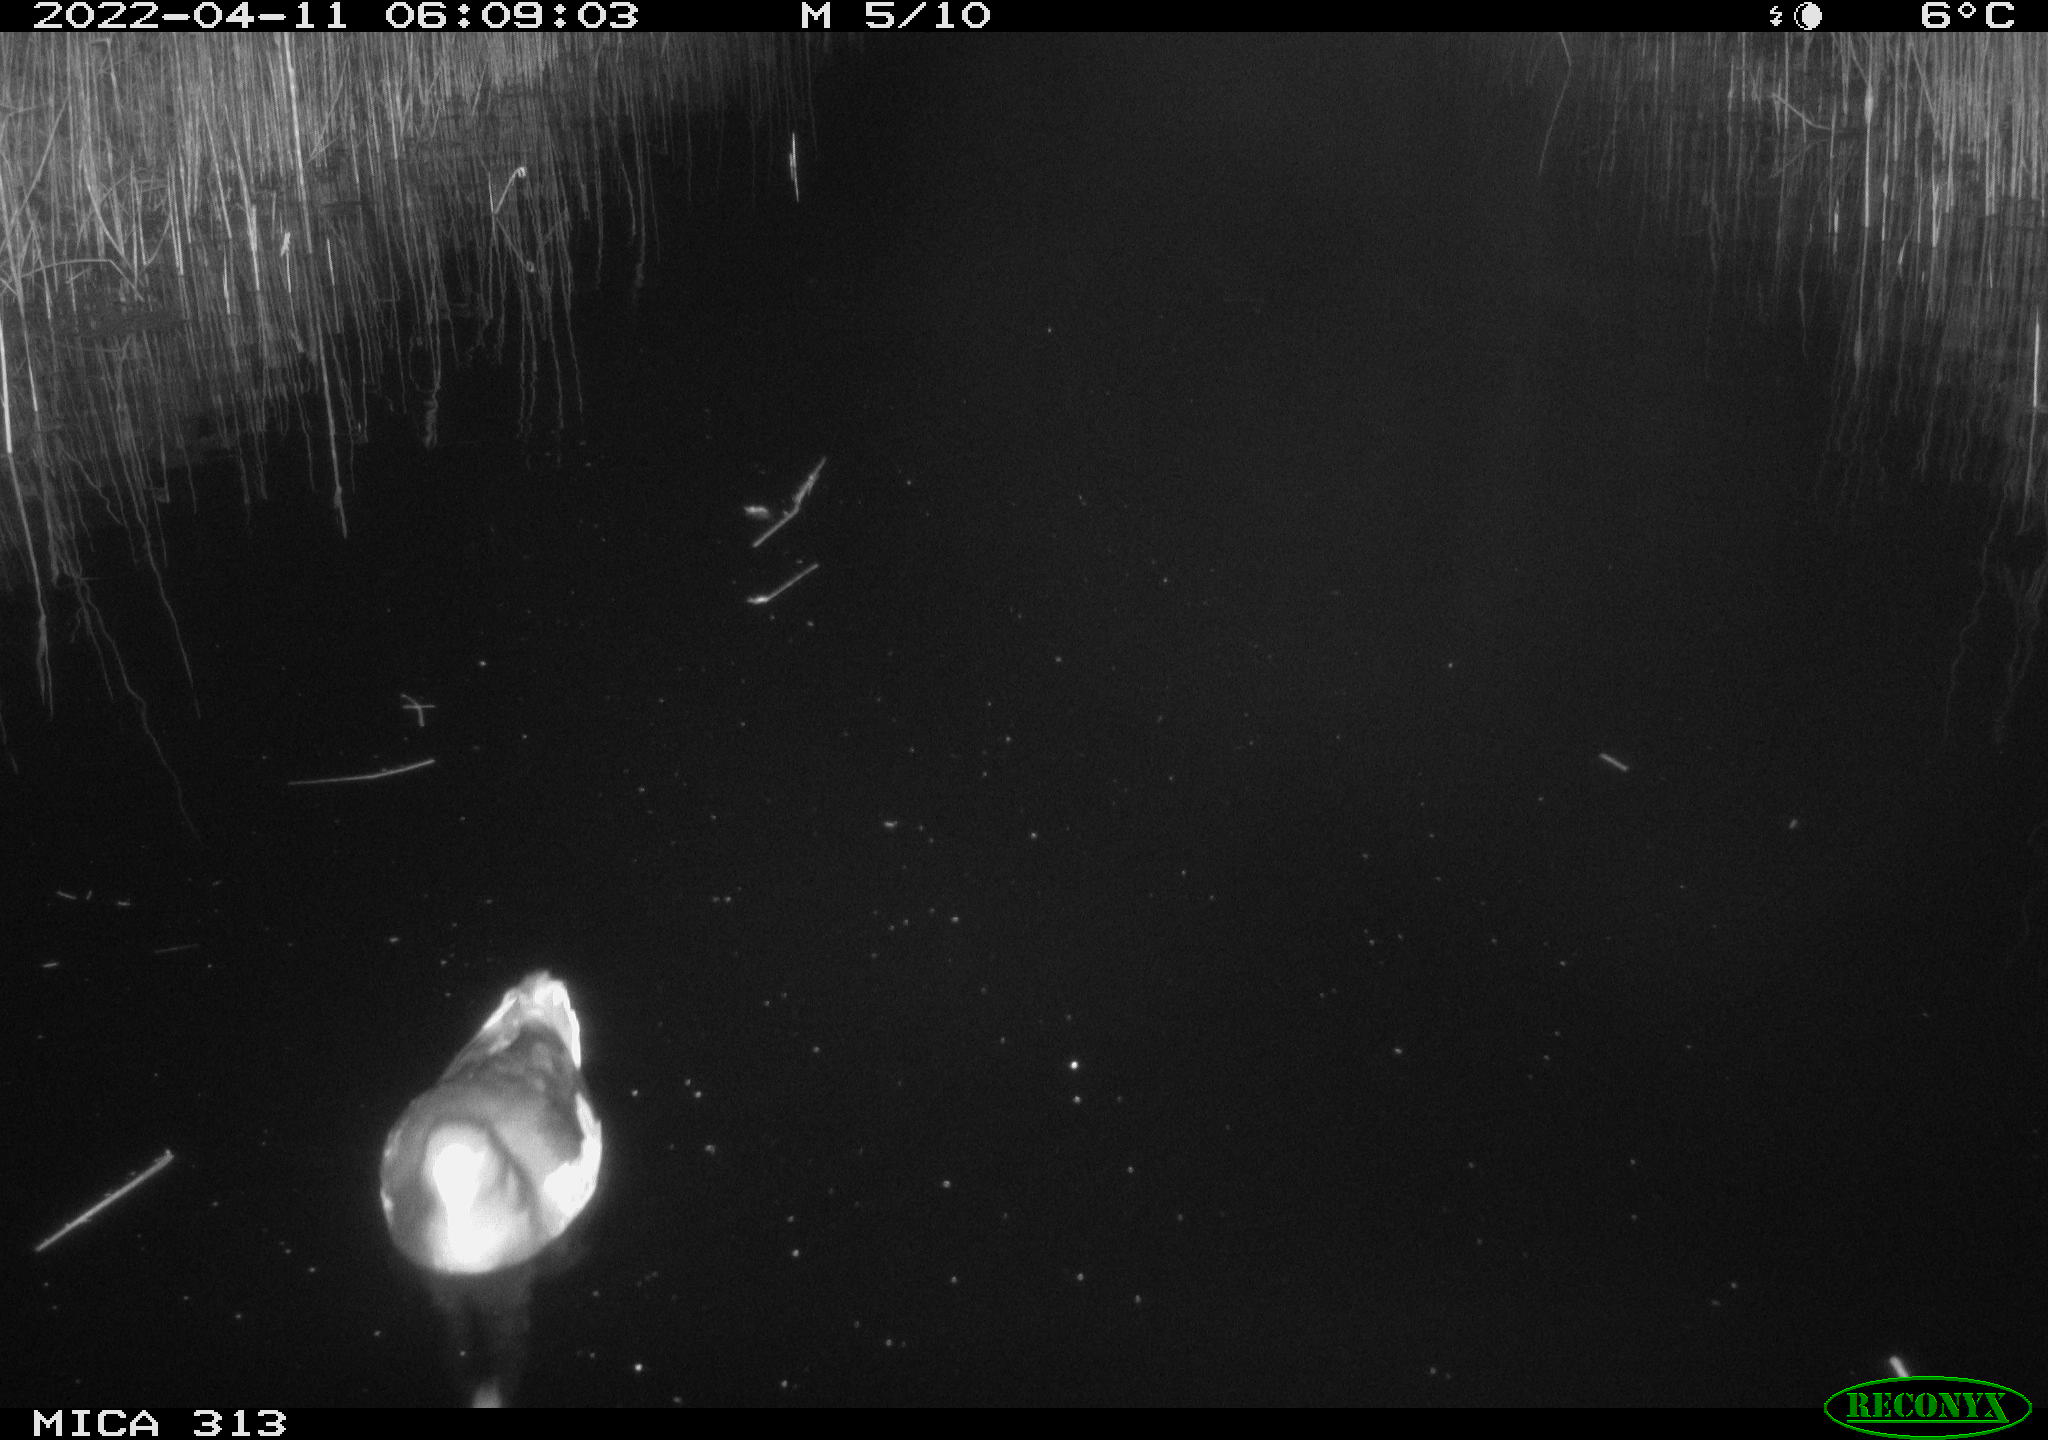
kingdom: Animalia
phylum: Chordata
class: Aves
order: Gruiformes
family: Rallidae
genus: Gallinula
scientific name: Gallinula chloropus
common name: Common moorhen
